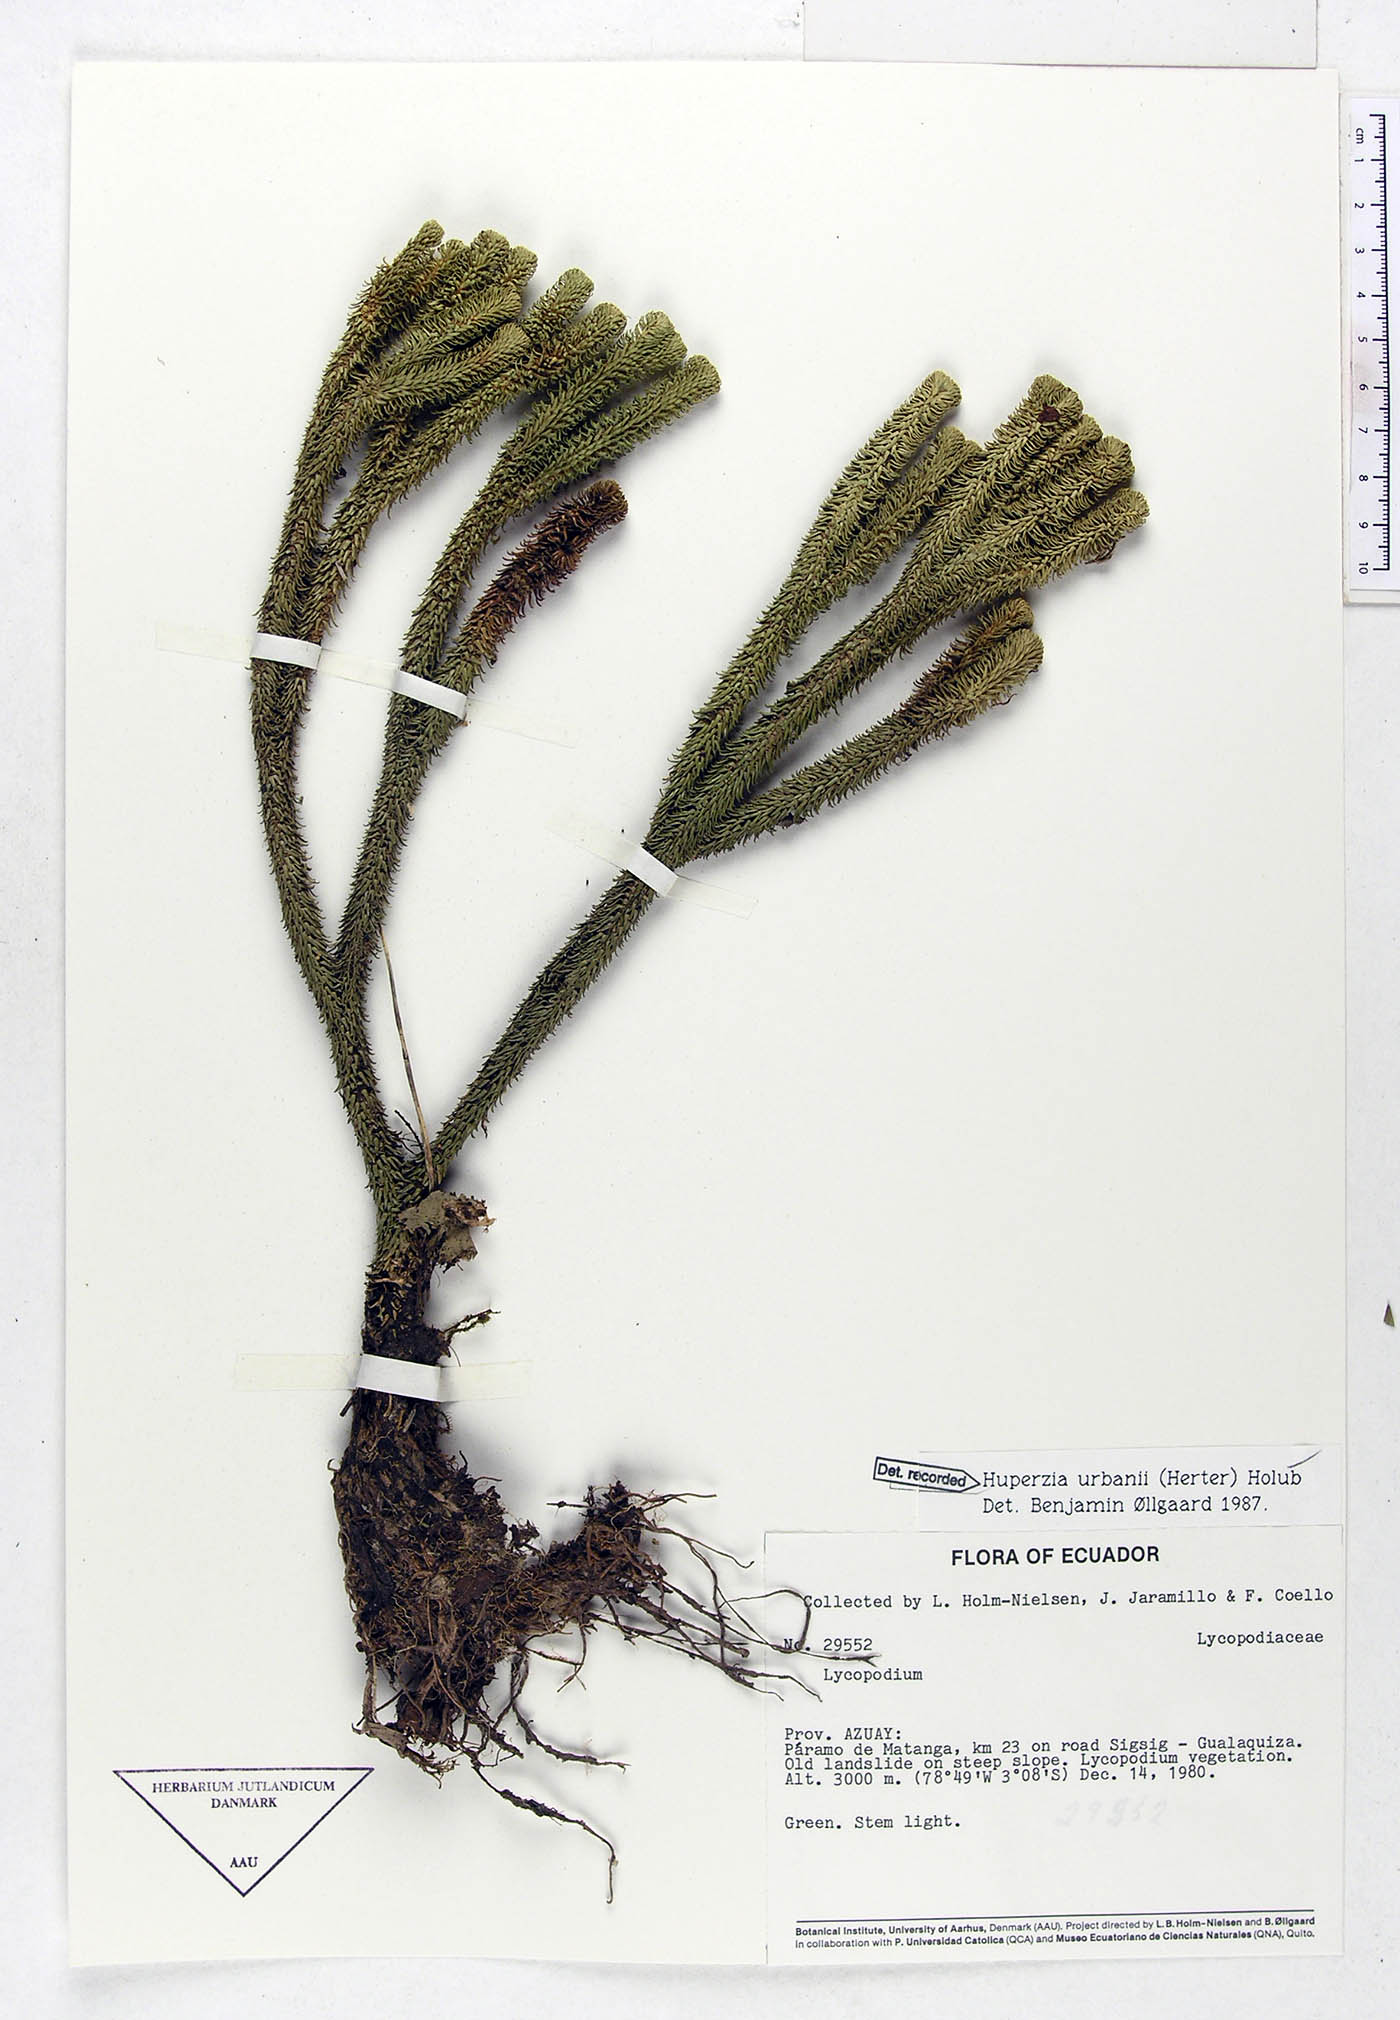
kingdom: Plantae
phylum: Tracheophyta
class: Lycopodiopsida
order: Lycopodiales
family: Lycopodiaceae
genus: Phlegmariurus
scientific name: Phlegmariurus urbanii
